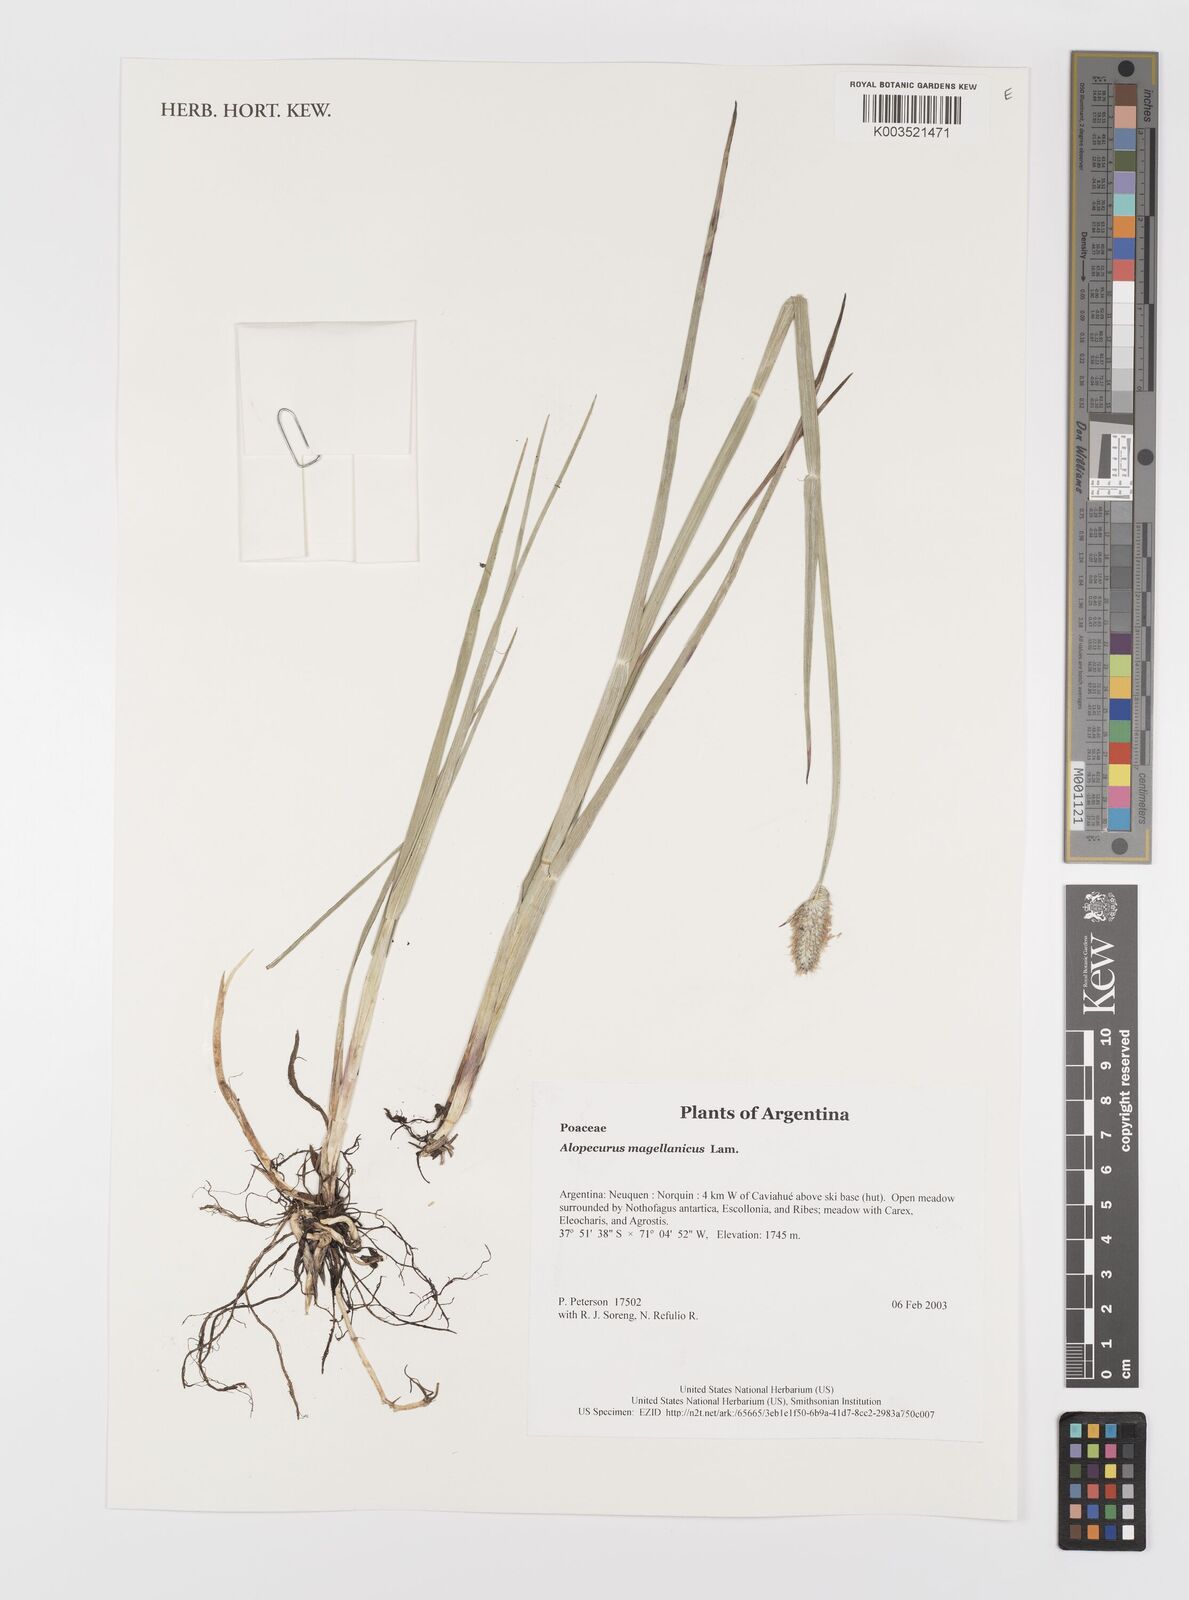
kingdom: Plantae
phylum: Tracheophyta
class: Liliopsida
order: Poales
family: Poaceae
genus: Alopecurus
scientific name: Alopecurus magellanicus
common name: Alpine foxtail
